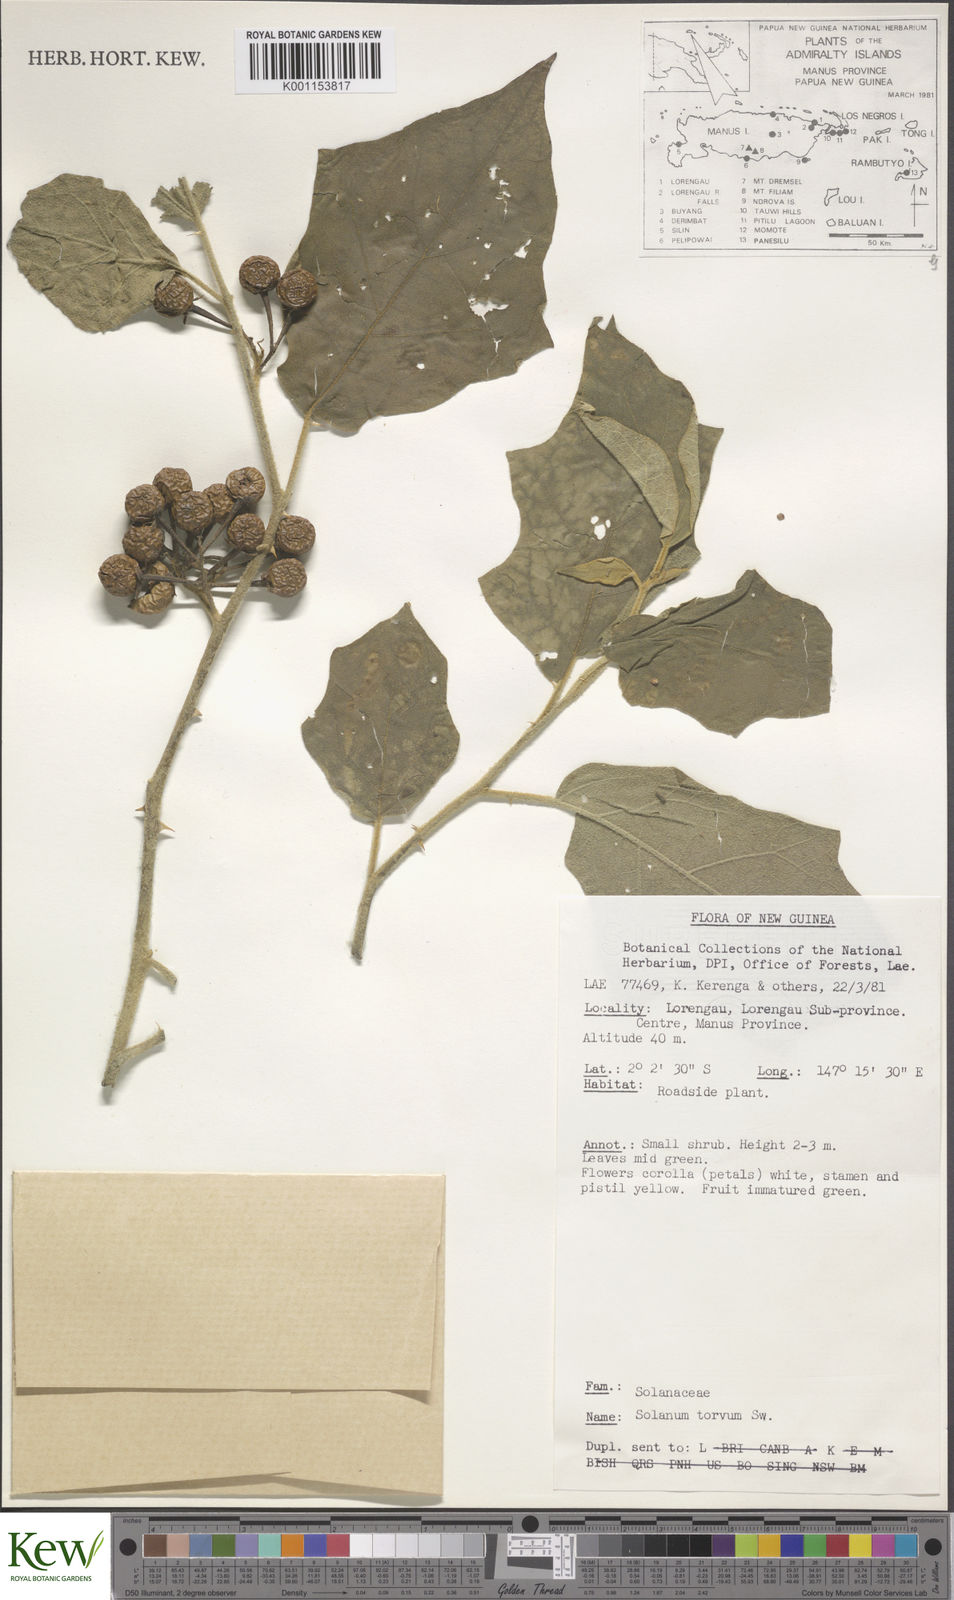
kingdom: Plantae
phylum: Tracheophyta
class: Magnoliopsida
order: Solanales
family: Solanaceae
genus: Solanum
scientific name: Solanum torvum
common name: Turkey berry
